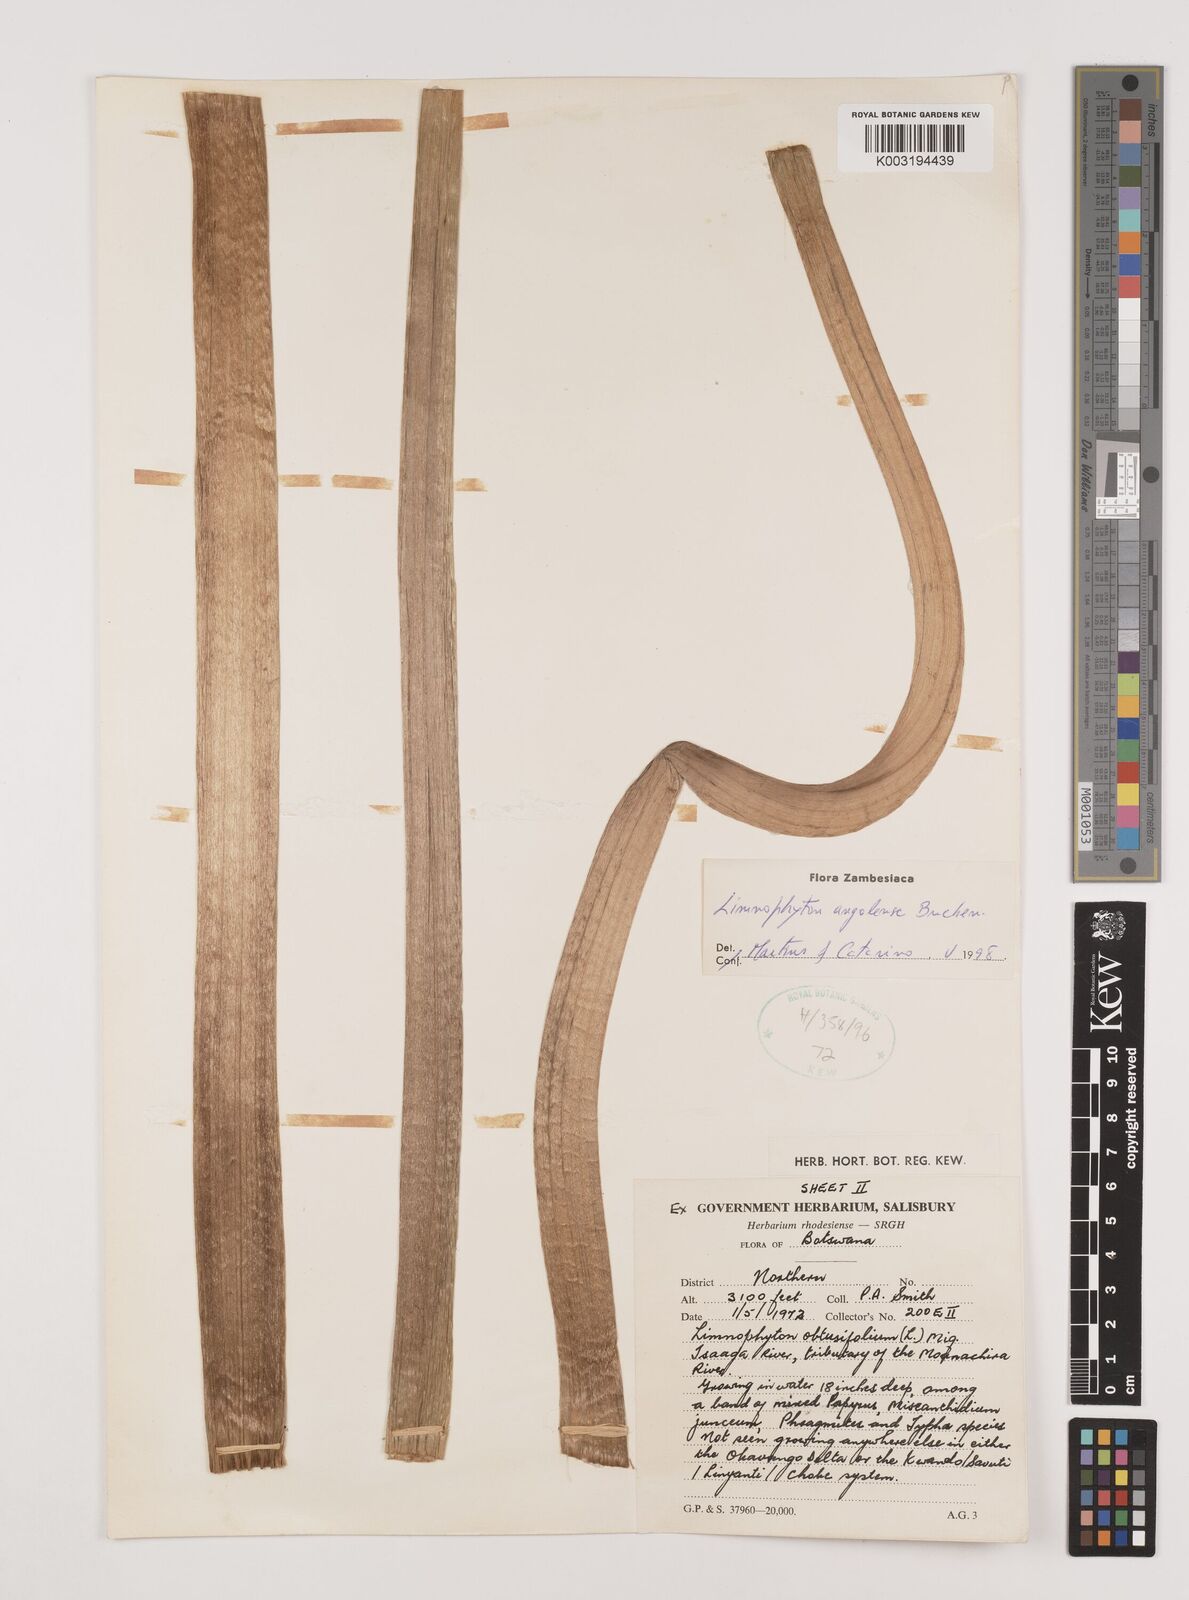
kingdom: Plantae
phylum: Tracheophyta
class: Liliopsida
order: Alismatales
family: Alismataceae
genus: Limnophyton
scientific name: Limnophyton angolense
